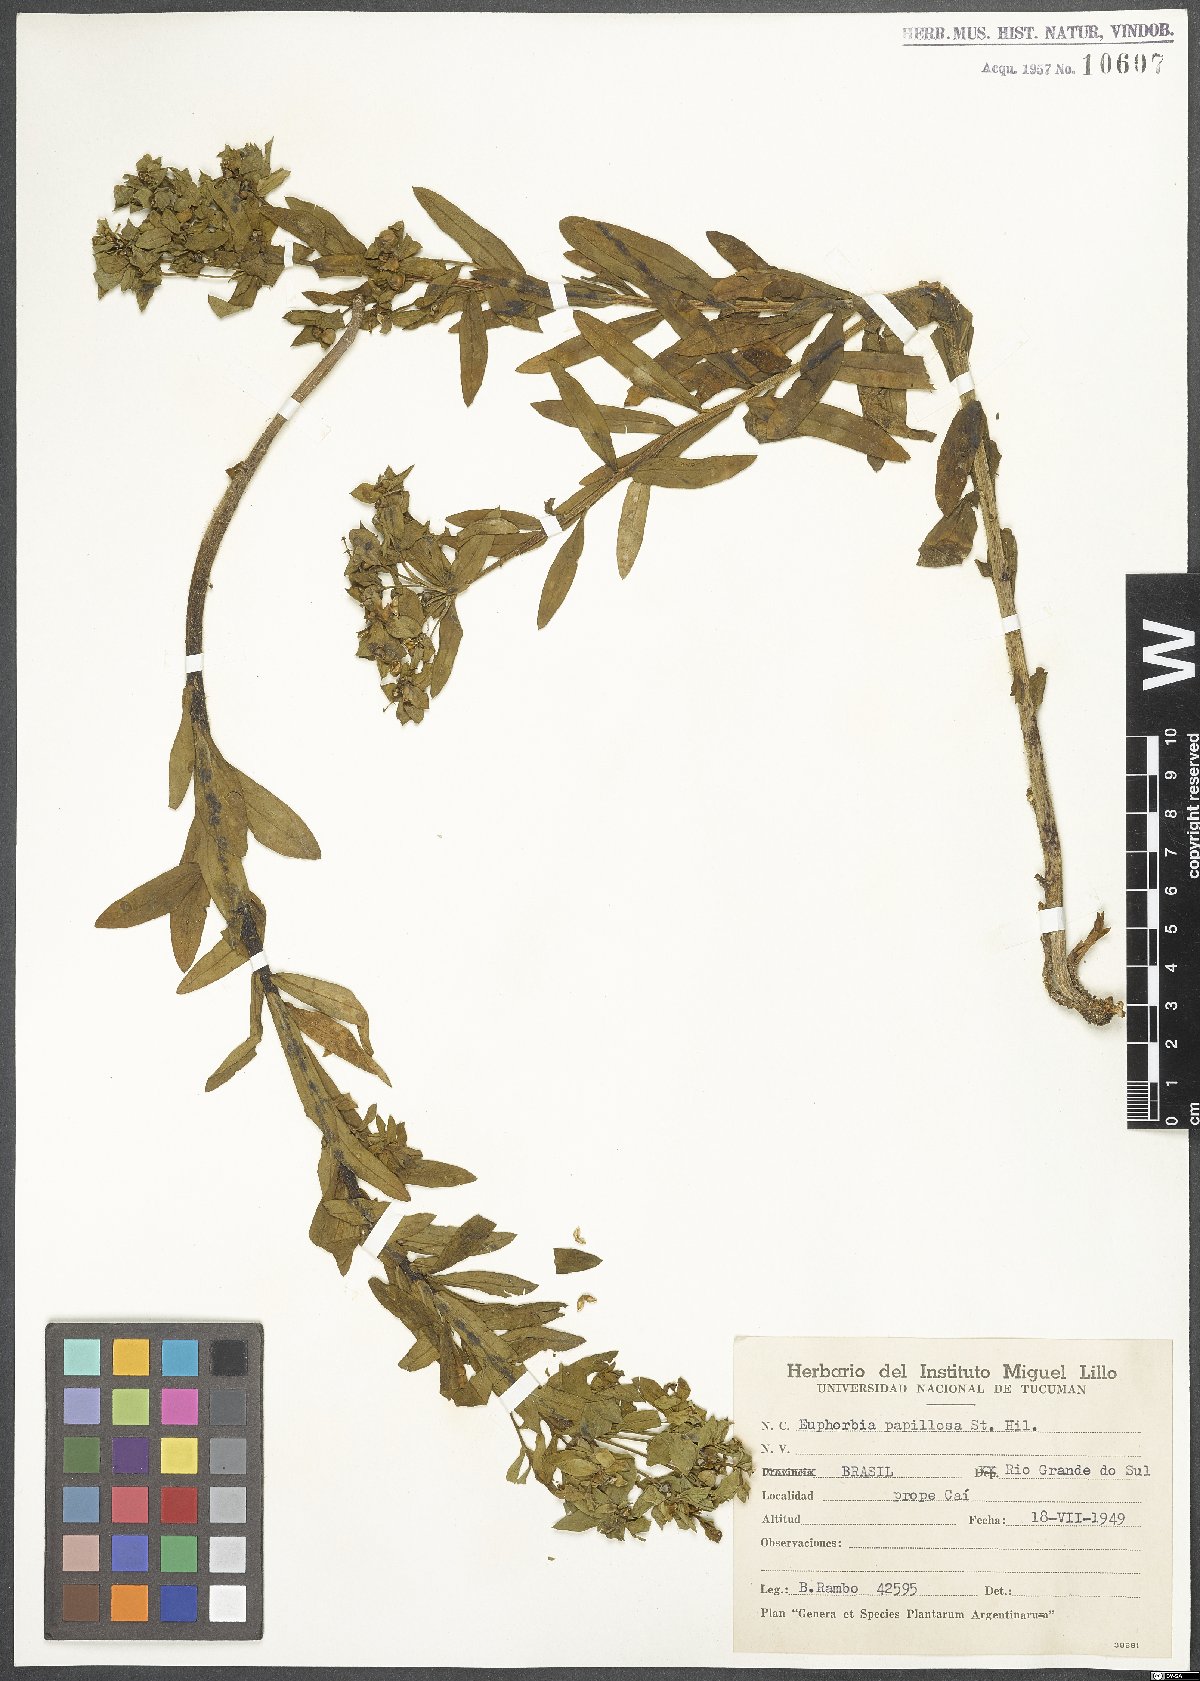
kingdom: Plantae
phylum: Tracheophyta
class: Magnoliopsida
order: Malpighiales
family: Euphorbiaceae
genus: Euphorbia
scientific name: Euphorbia papillosa
